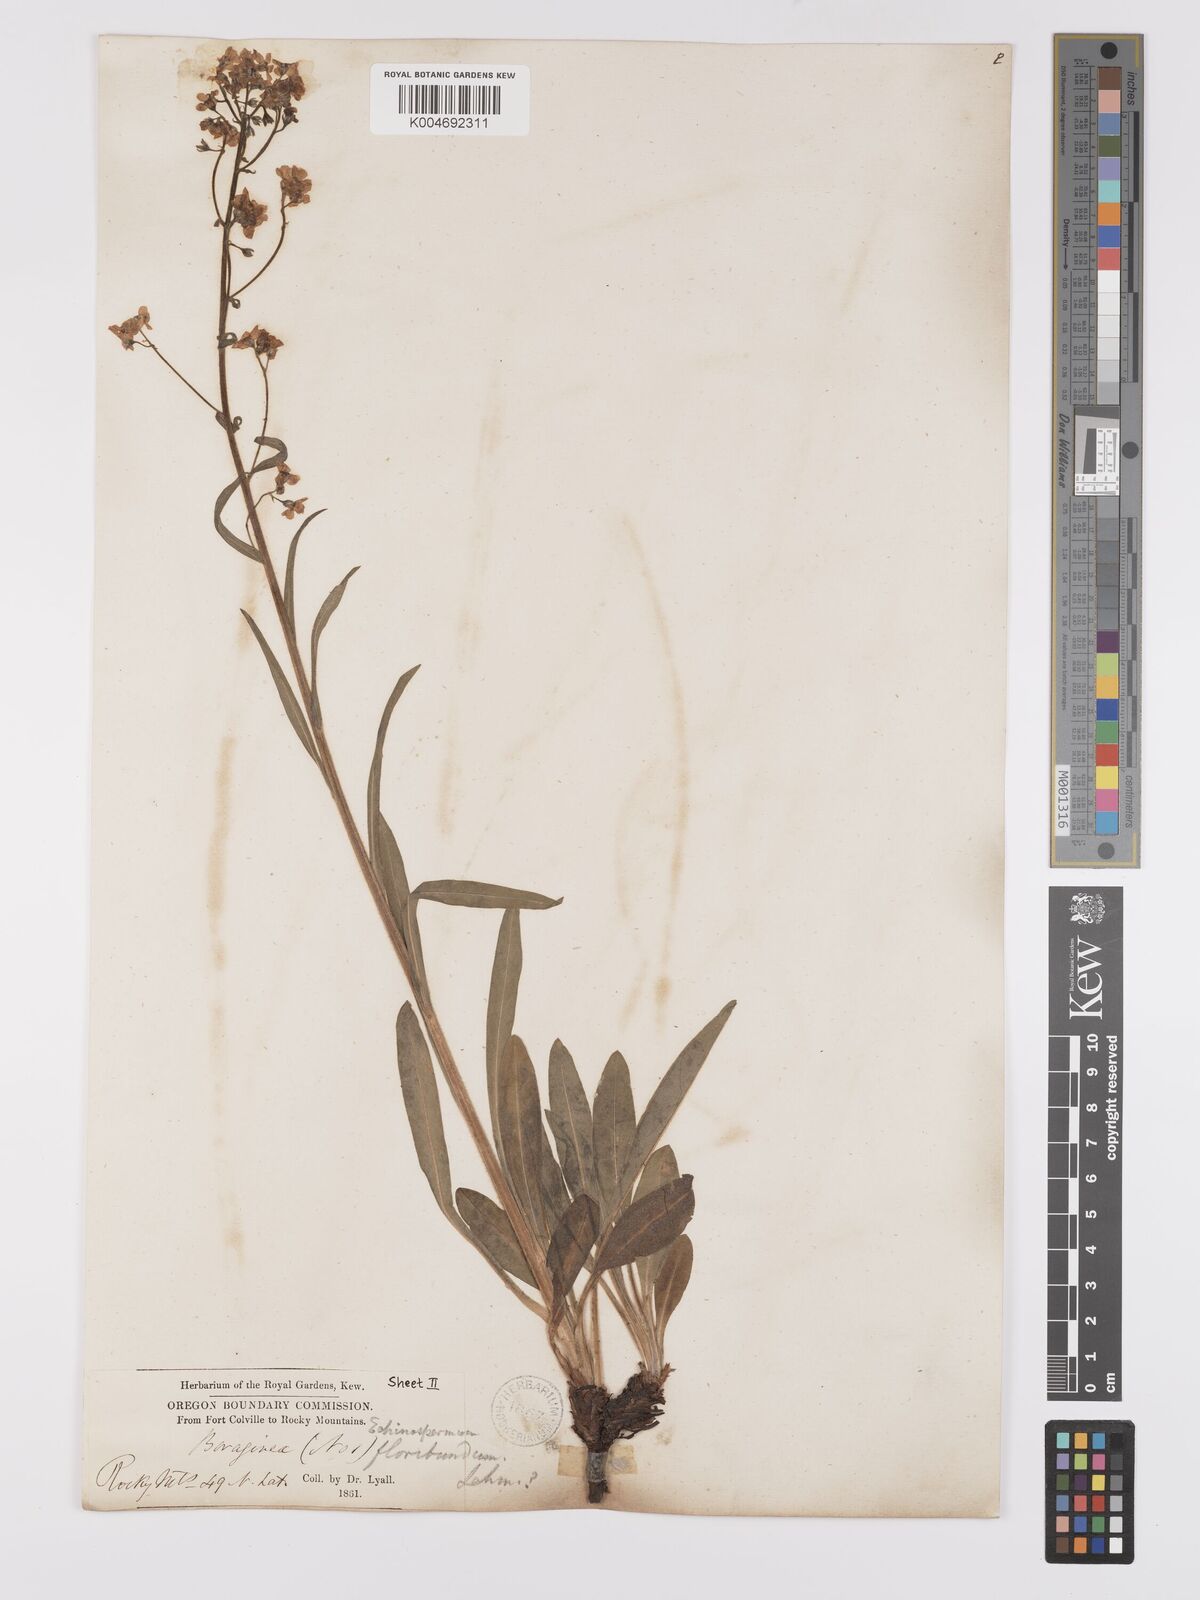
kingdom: Plantae
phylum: Tracheophyta
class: Magnoliopsida
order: Boraginales
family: Boraginaceae
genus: Hackelia
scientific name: Hackelia diffusa
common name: Spreading hackelia
